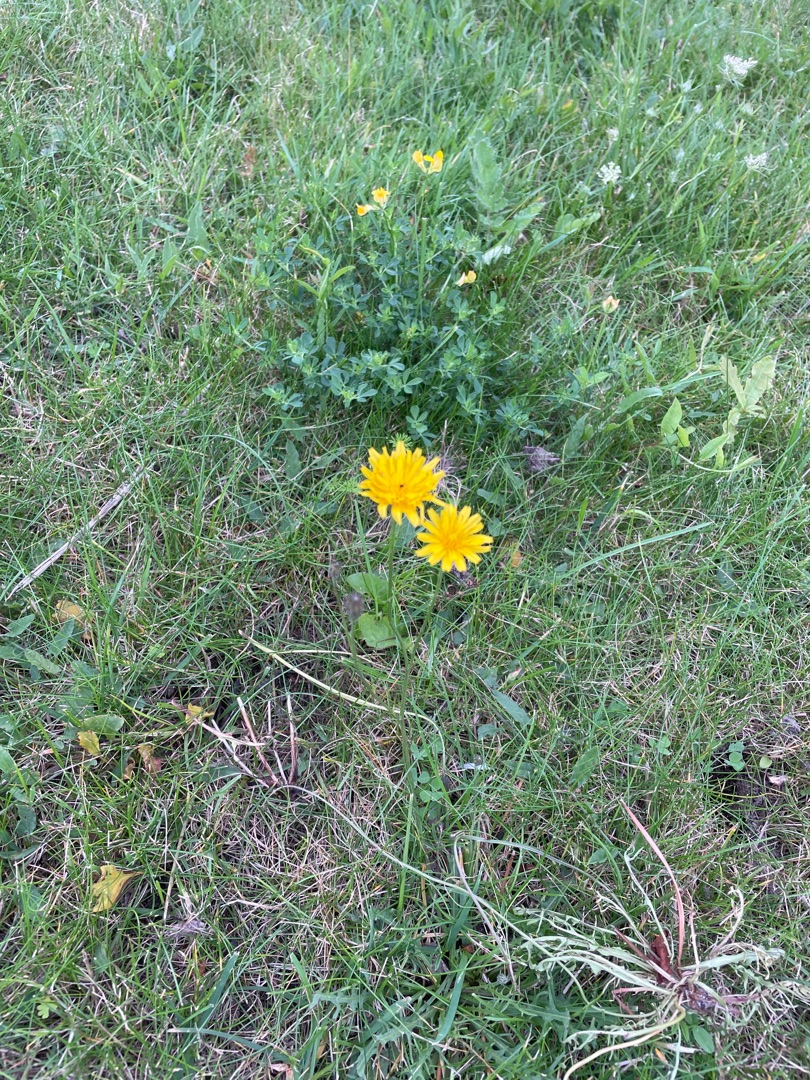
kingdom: Plantae
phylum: Tracheophyta
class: Magnoliopsida
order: Asterales
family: Asteraceae
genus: Scorzoneroides
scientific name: Scorzoneroides autumnalis
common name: Høst-borst
